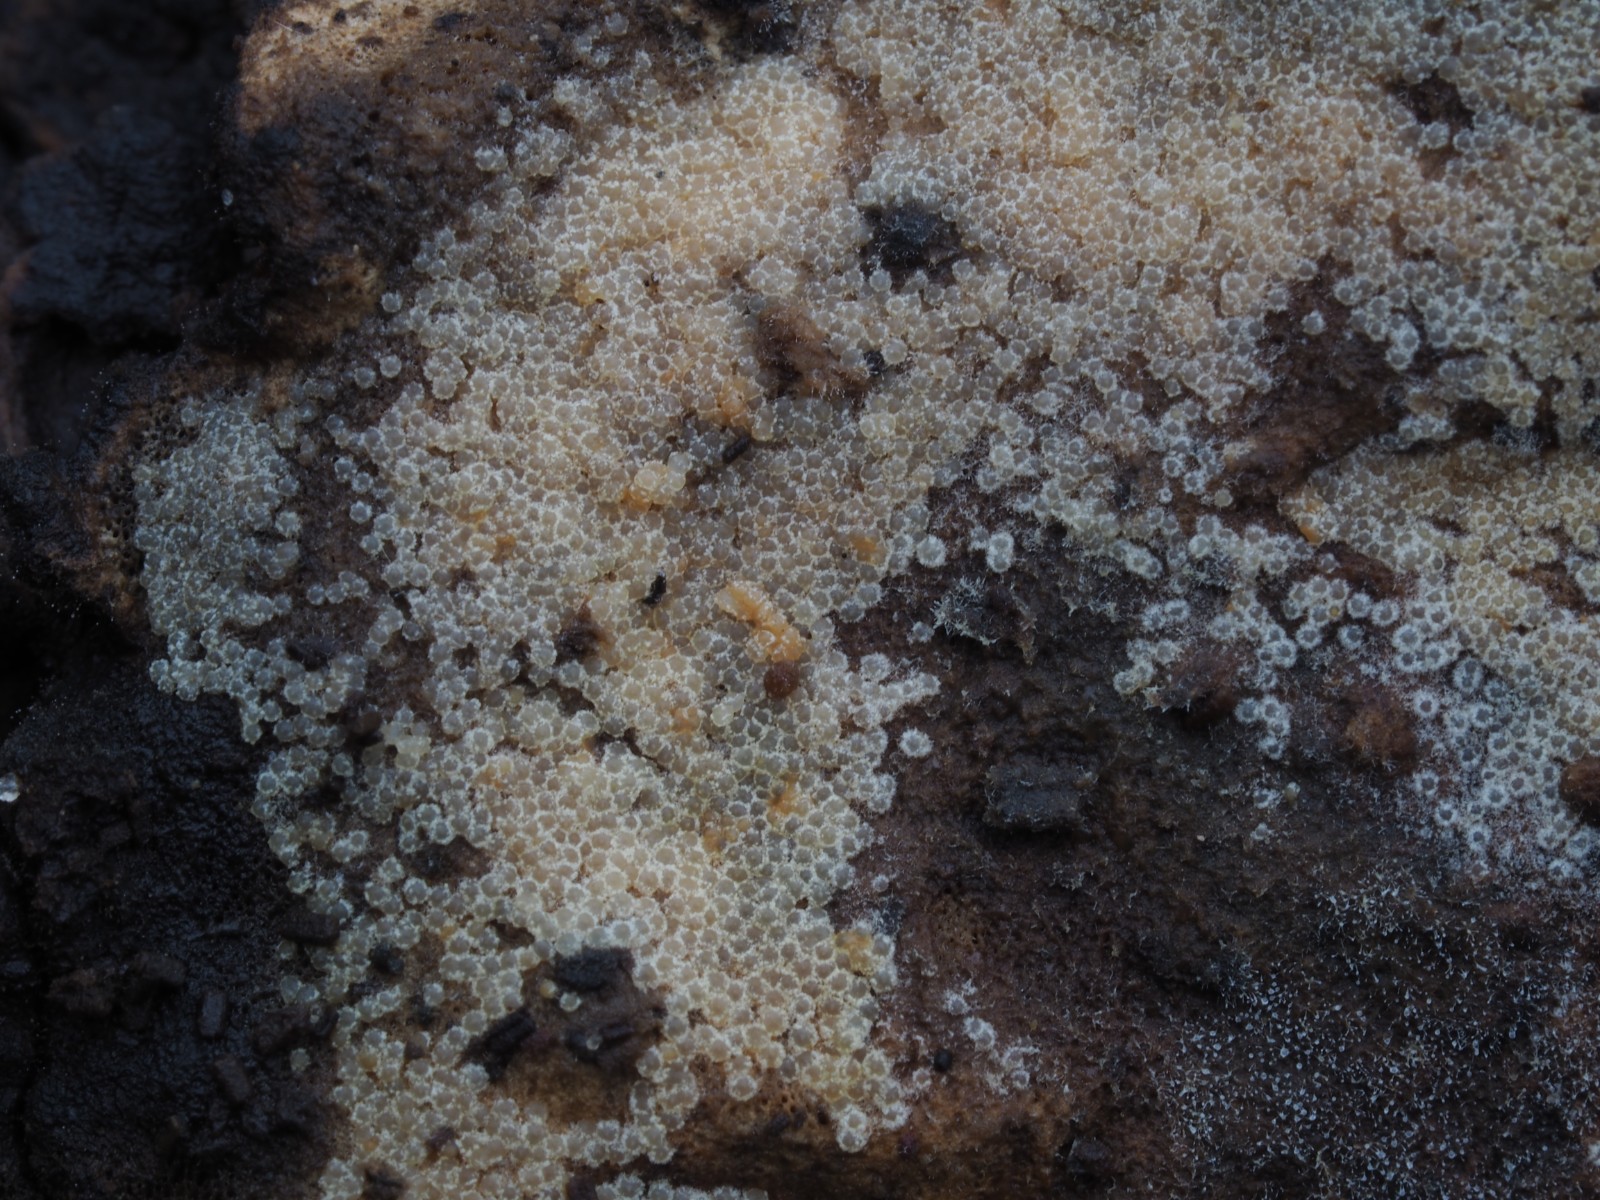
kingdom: Fungi
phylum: Ascomycota
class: Sordariomycetes
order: Hypocreales
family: Hypocreaceae
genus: Protocrea
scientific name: Protocrea farinosa
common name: krystalpore-kødkerne
